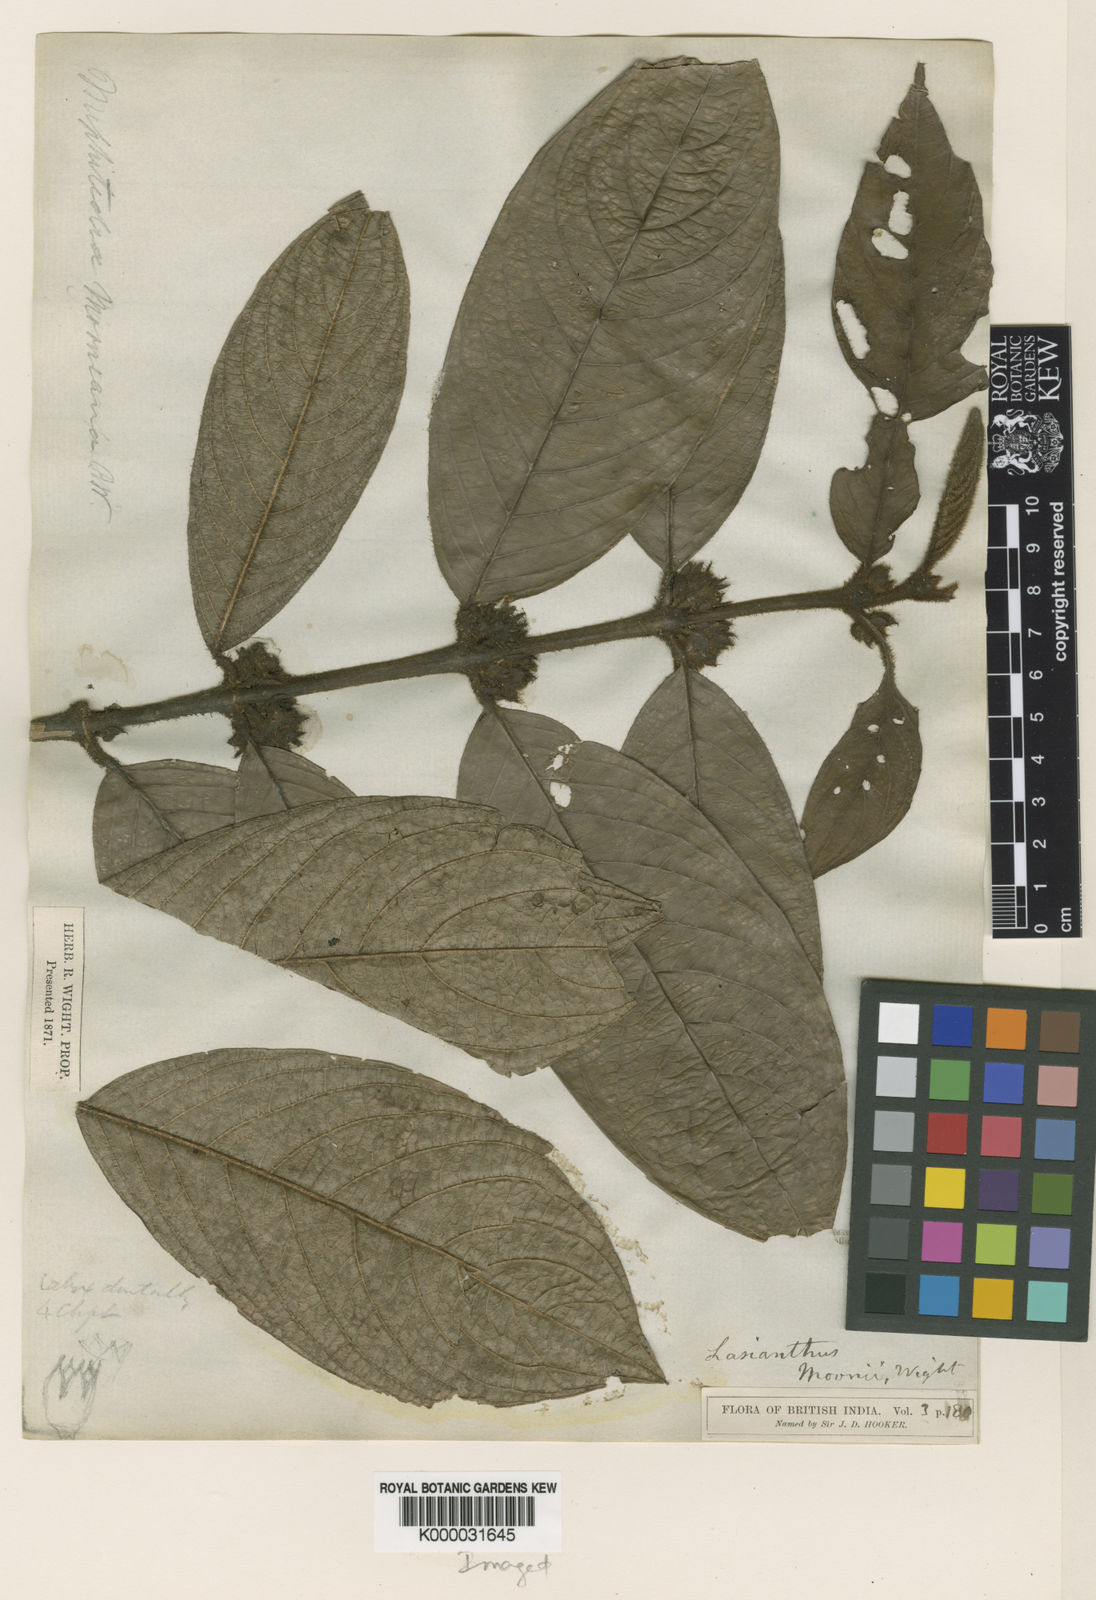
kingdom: Plantae
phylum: Tracheophyta
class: Magnoliopsida
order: Gentianales
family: Rubiaceae
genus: Lasianthus
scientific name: Lasianthus moonii
